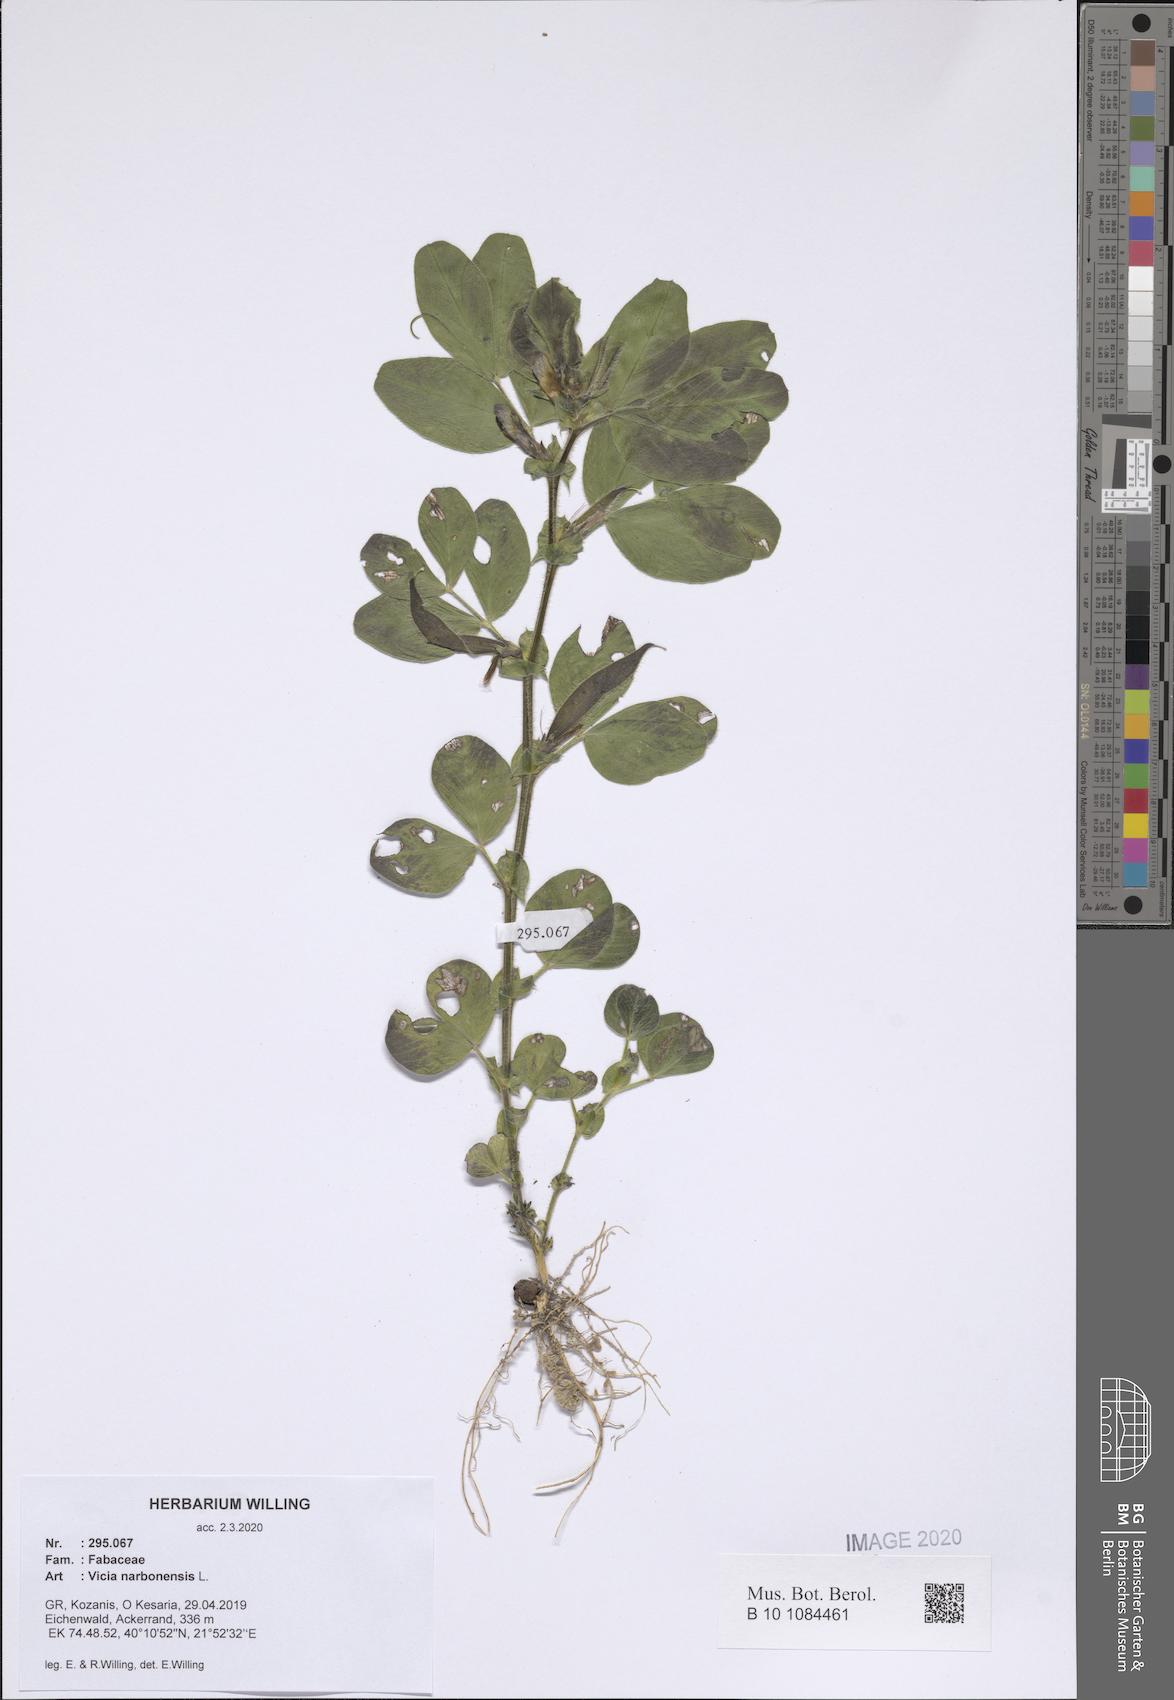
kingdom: Plantae
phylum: Tracheophyta
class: Magnoliopsida
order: Fabales
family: Fabaceae
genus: Vicia
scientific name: Vicia narbonensis
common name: Narbonne vetch
